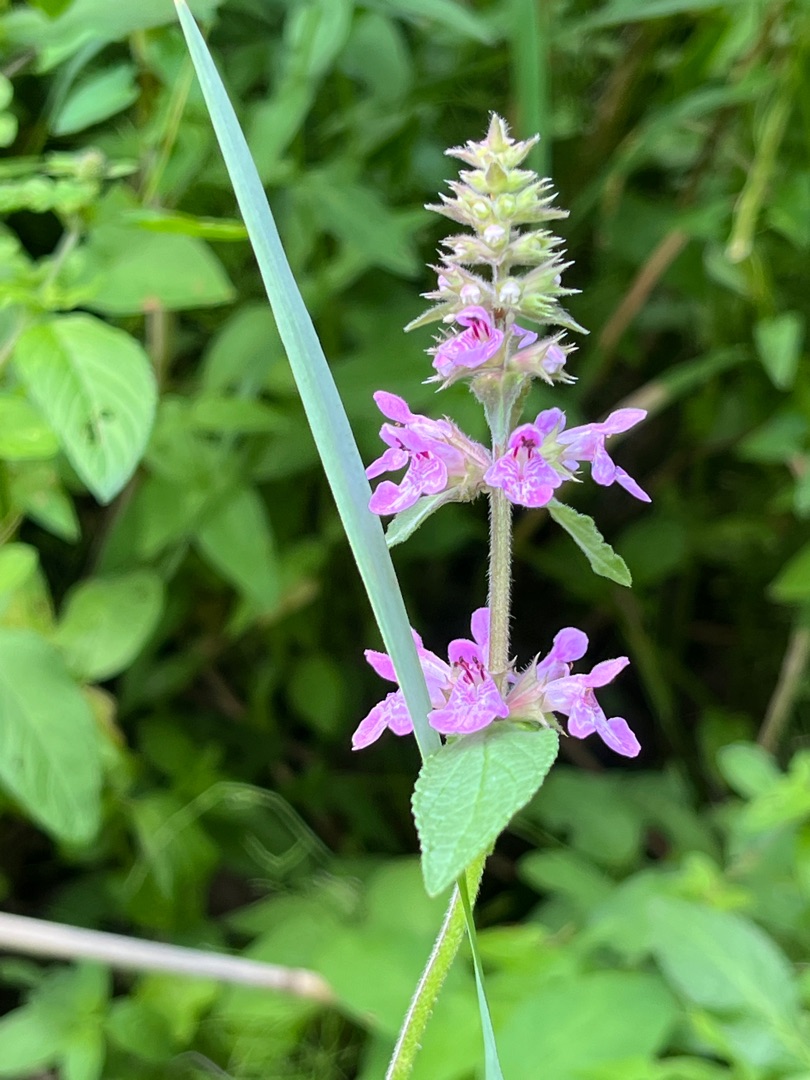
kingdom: Plantae
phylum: Tracheophyta
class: Magnoliopsida
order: Lamiales
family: Lamiaceae
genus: Stachys
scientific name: Stachys palustris
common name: Kær-galtetand
